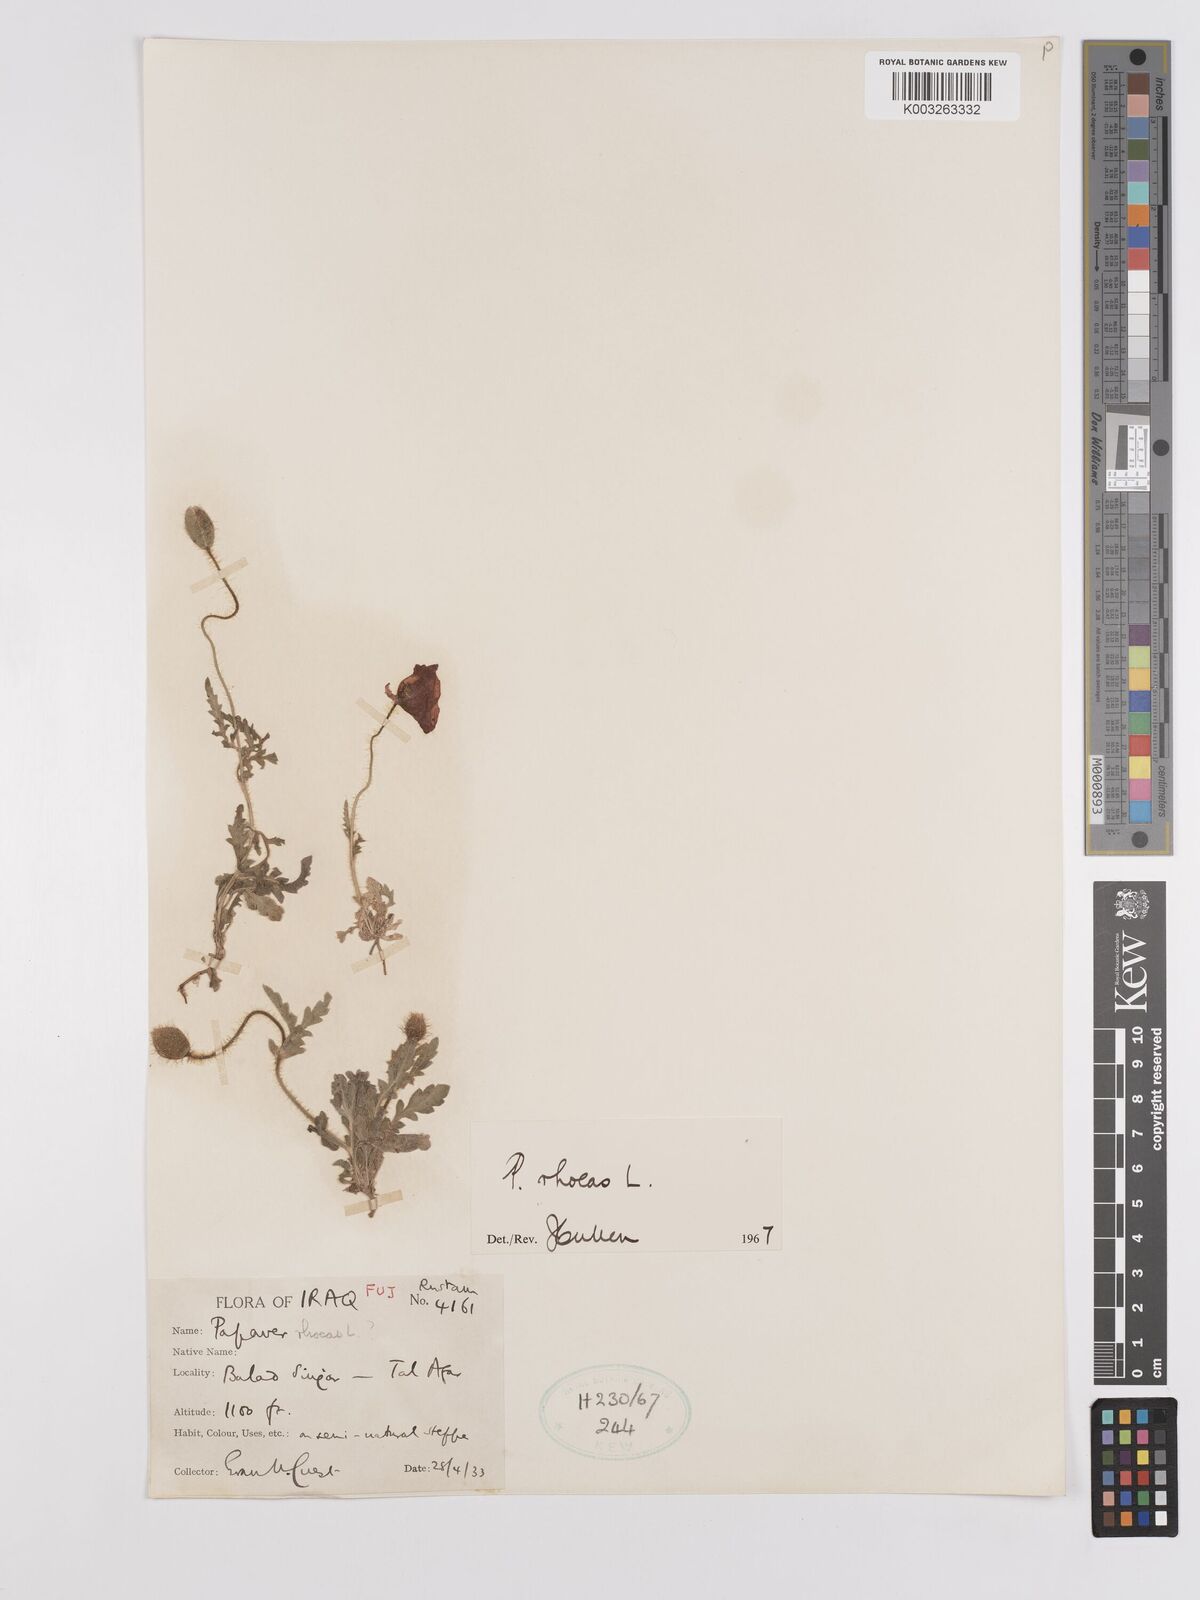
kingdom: Plantae
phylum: Tracheophyta
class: Magnoliopsida
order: Ranunculales
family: Papaveraceae
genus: Papaver
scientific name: Papaver rhoeas
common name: Corn poppy
